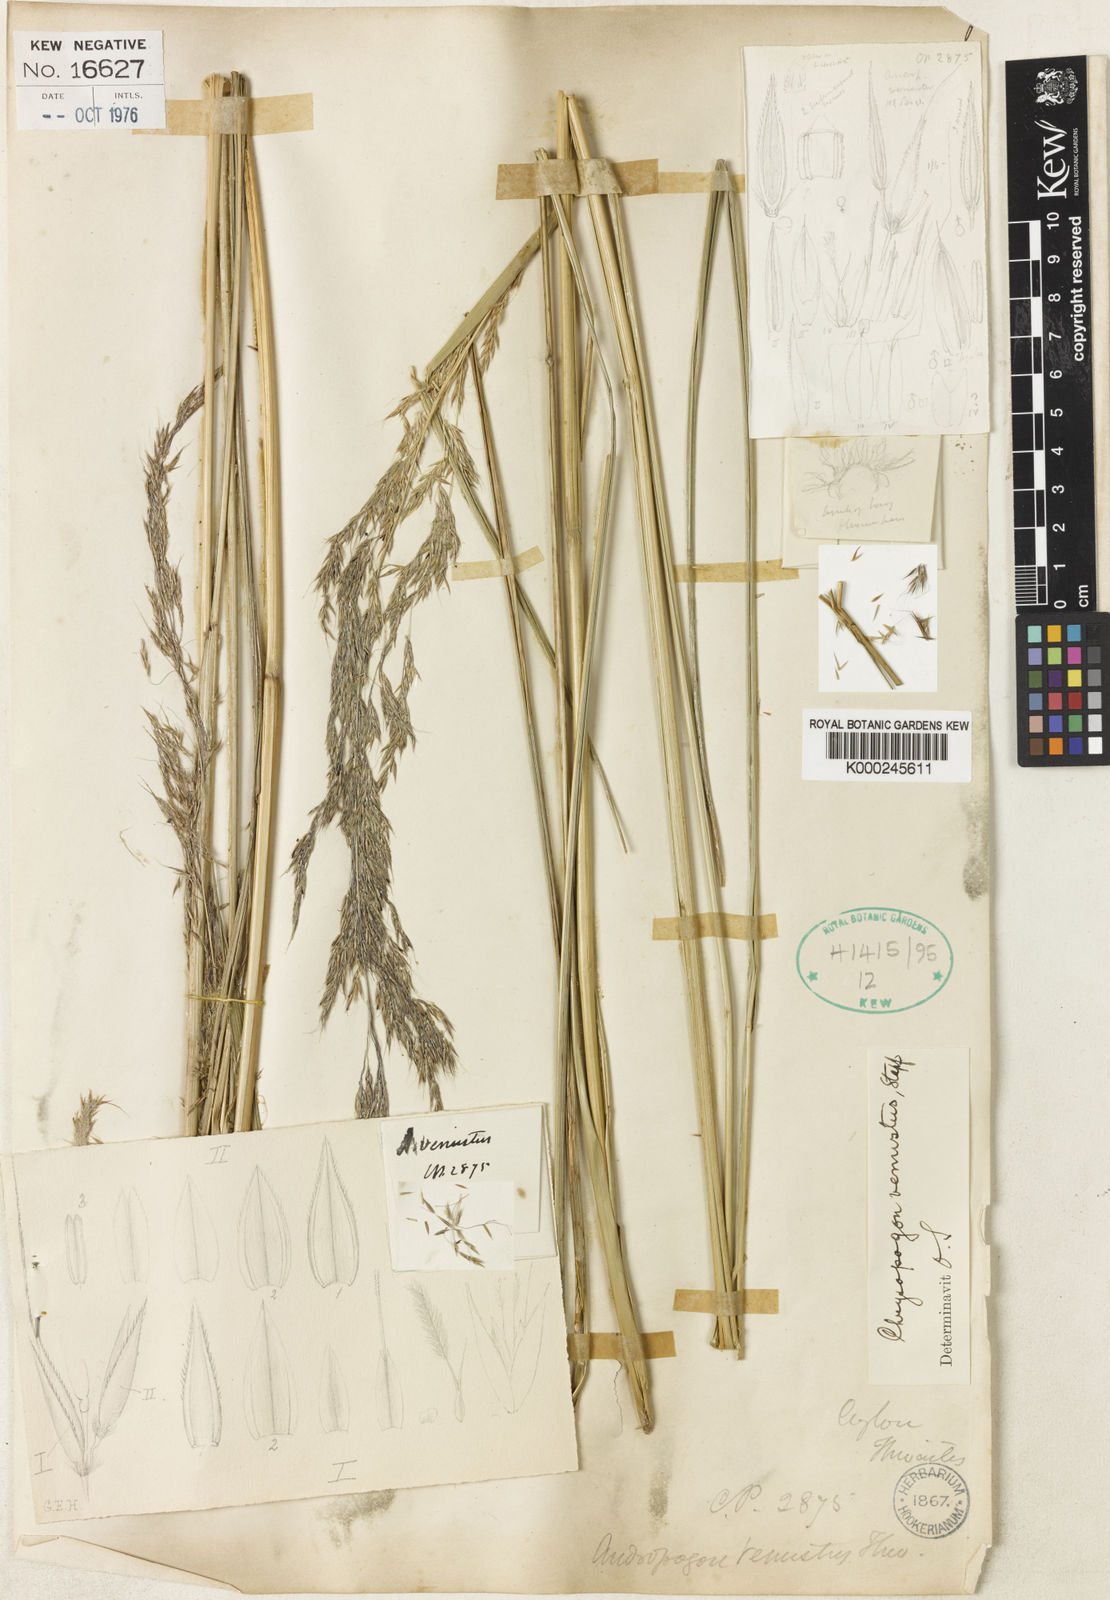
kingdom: Plantae
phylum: Tracheophyta
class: Liliopsida
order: Poales
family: Poaceae
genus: Hemisorghum
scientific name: Hemisorghum venustum
